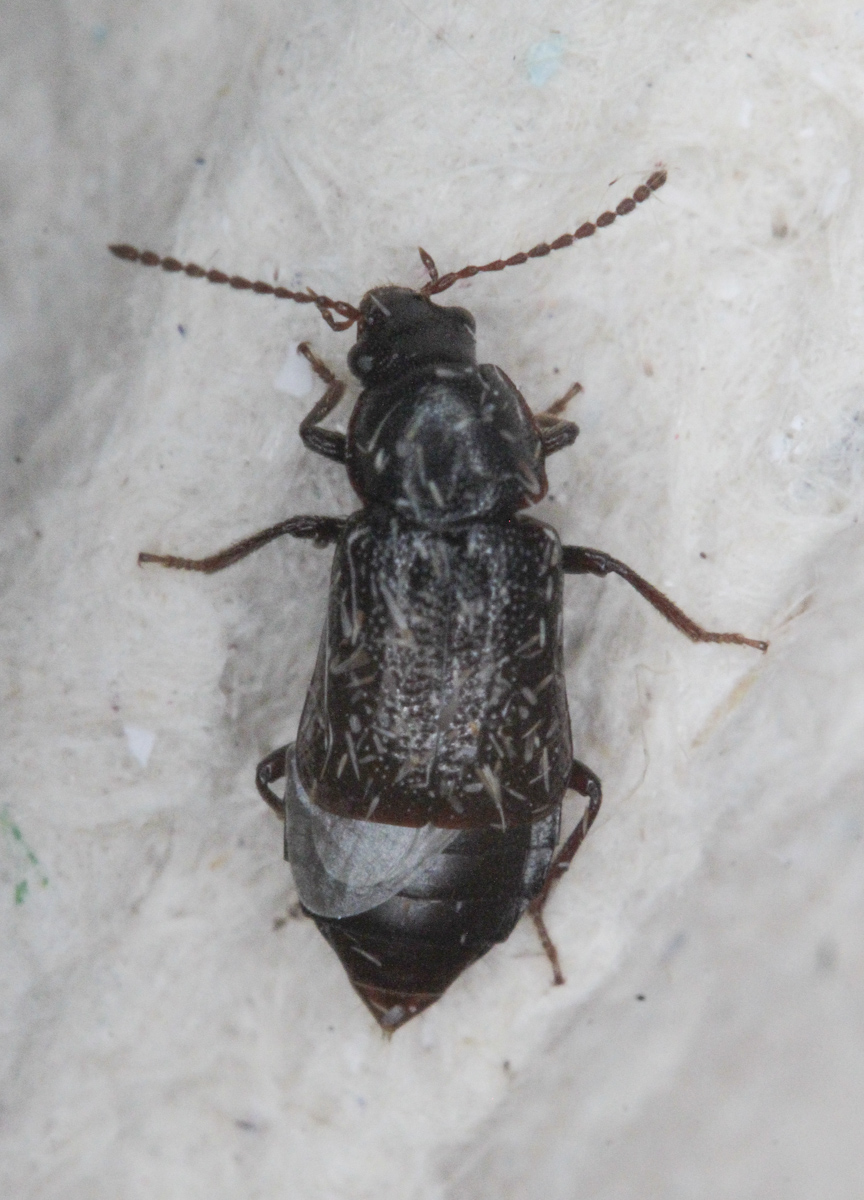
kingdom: Animalia
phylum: Arthropoda
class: Insecta
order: Coleoptera
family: Staphylinidae
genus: Olophrum
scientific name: Olophrum
